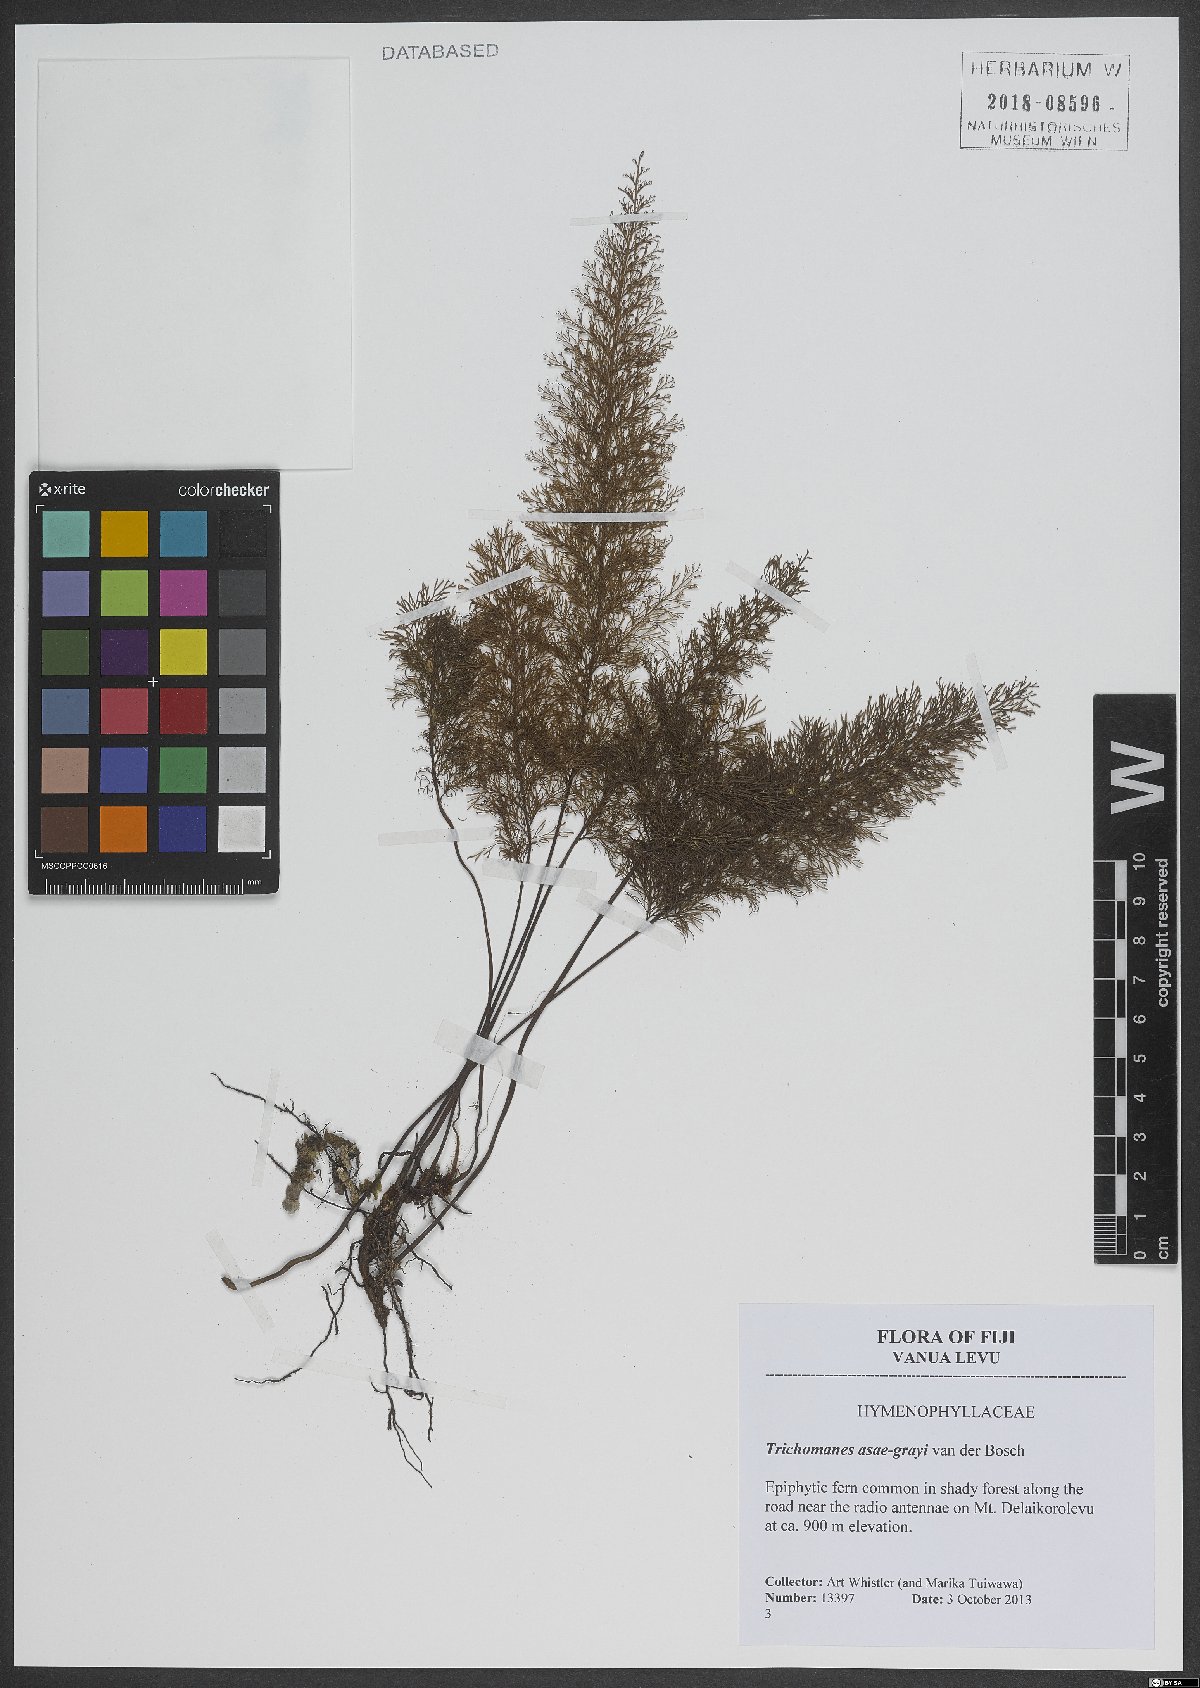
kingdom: Plantae
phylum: Tracheophyta
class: Polypodiopsida
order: Hymenophyllales
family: Hymenophyllaceae
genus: Abrodictyum
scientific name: Abrodictyum asae-grayi
